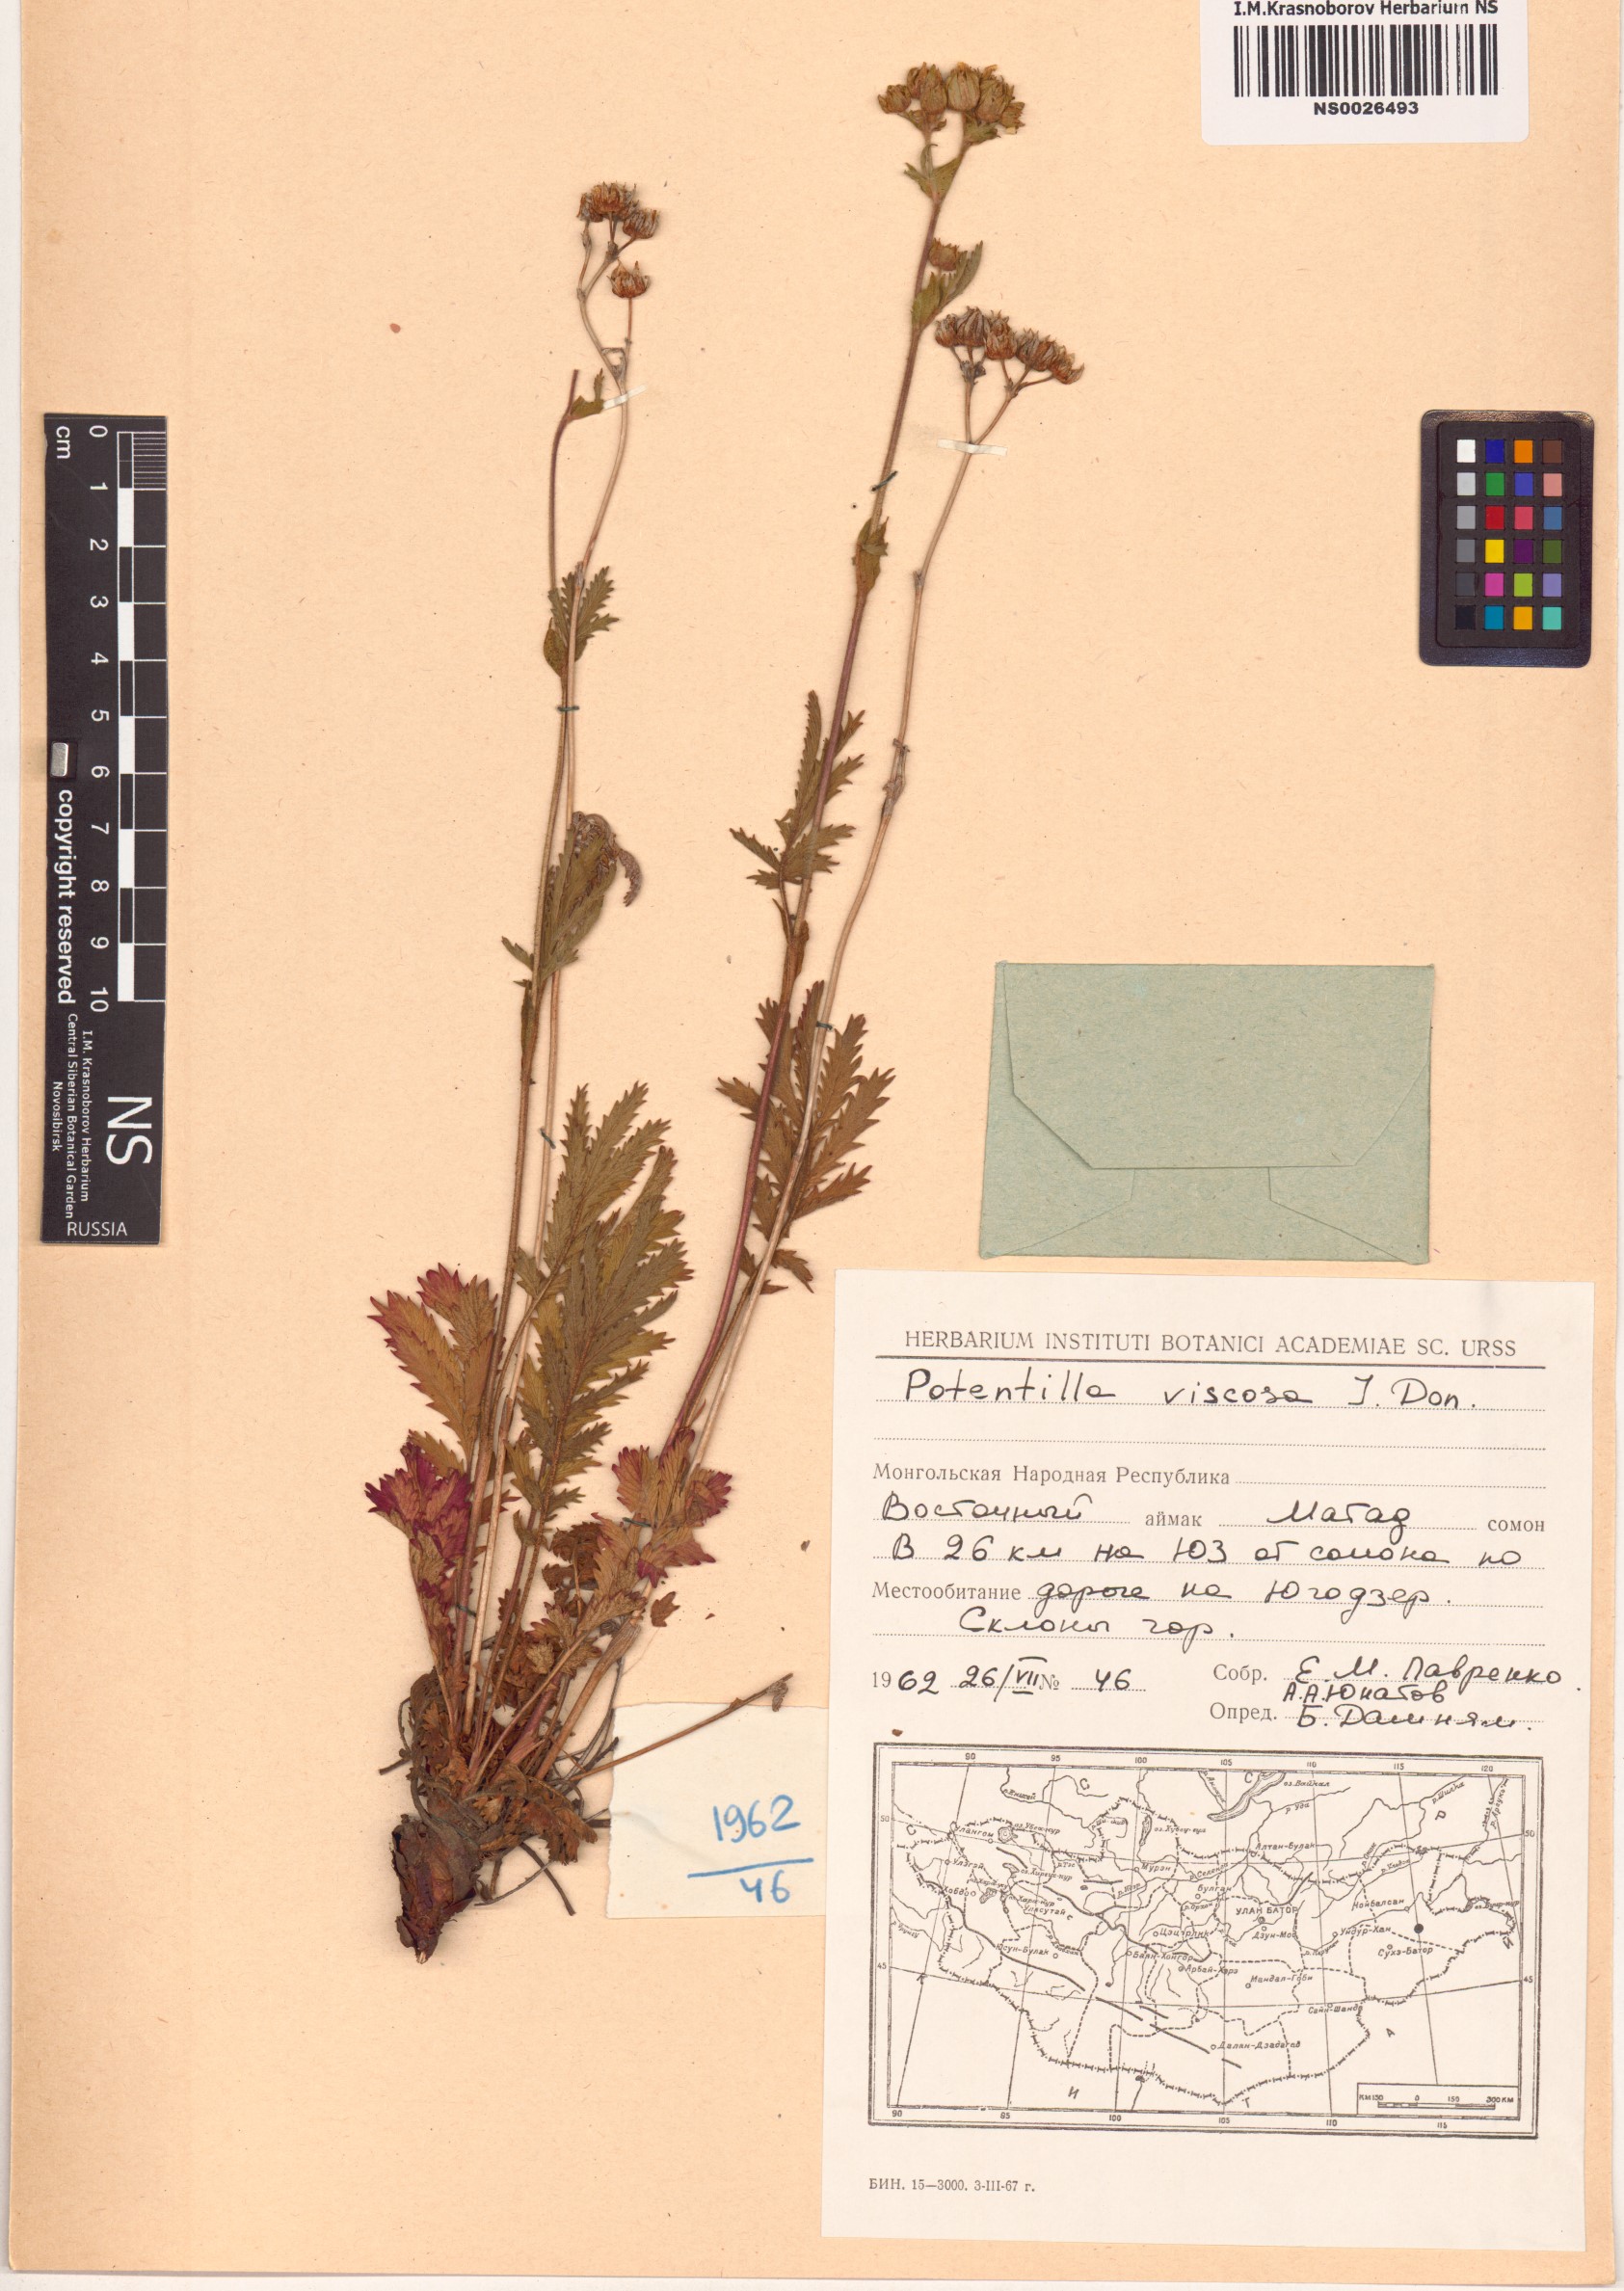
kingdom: Plantae
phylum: Tracheophyta
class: Magnoliopsida
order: Rosales
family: Rosaceae
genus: Potentilla
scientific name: Potentilla dentata
